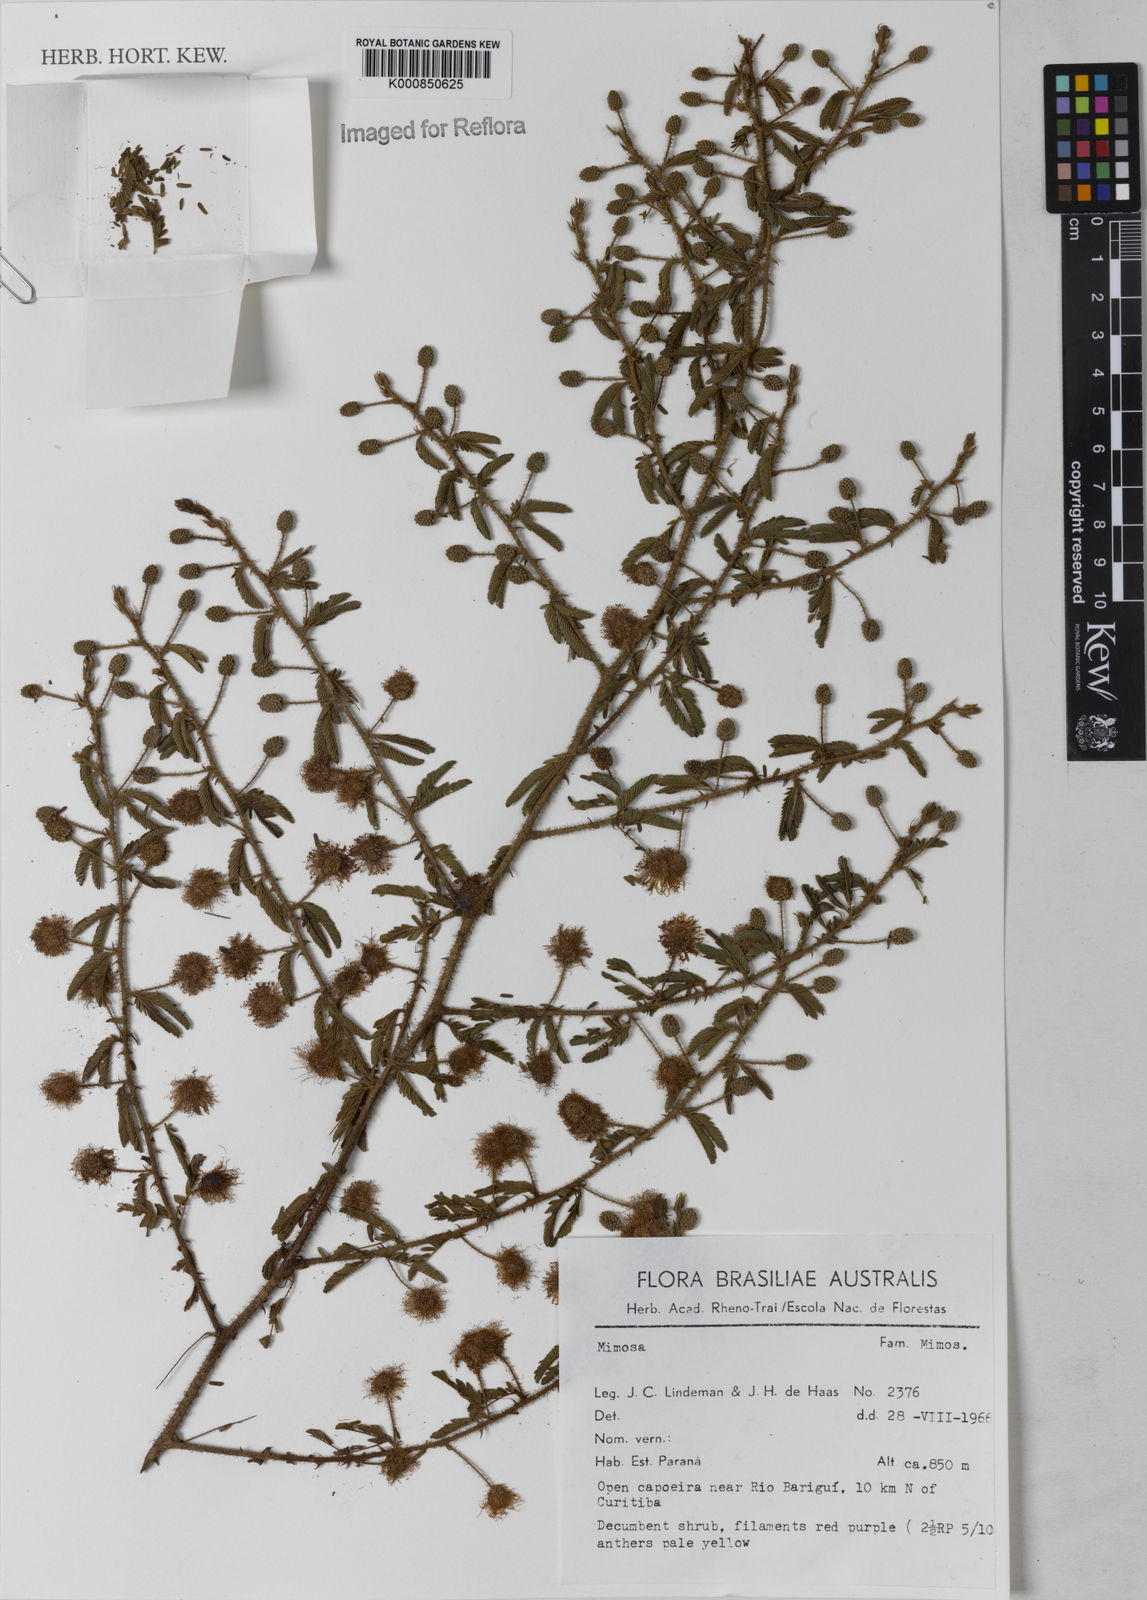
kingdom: Plantae
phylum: Tracheophyta
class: Magnoliopsida
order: Fabales
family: Fabaceae
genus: Mimosa
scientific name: Mimosa
